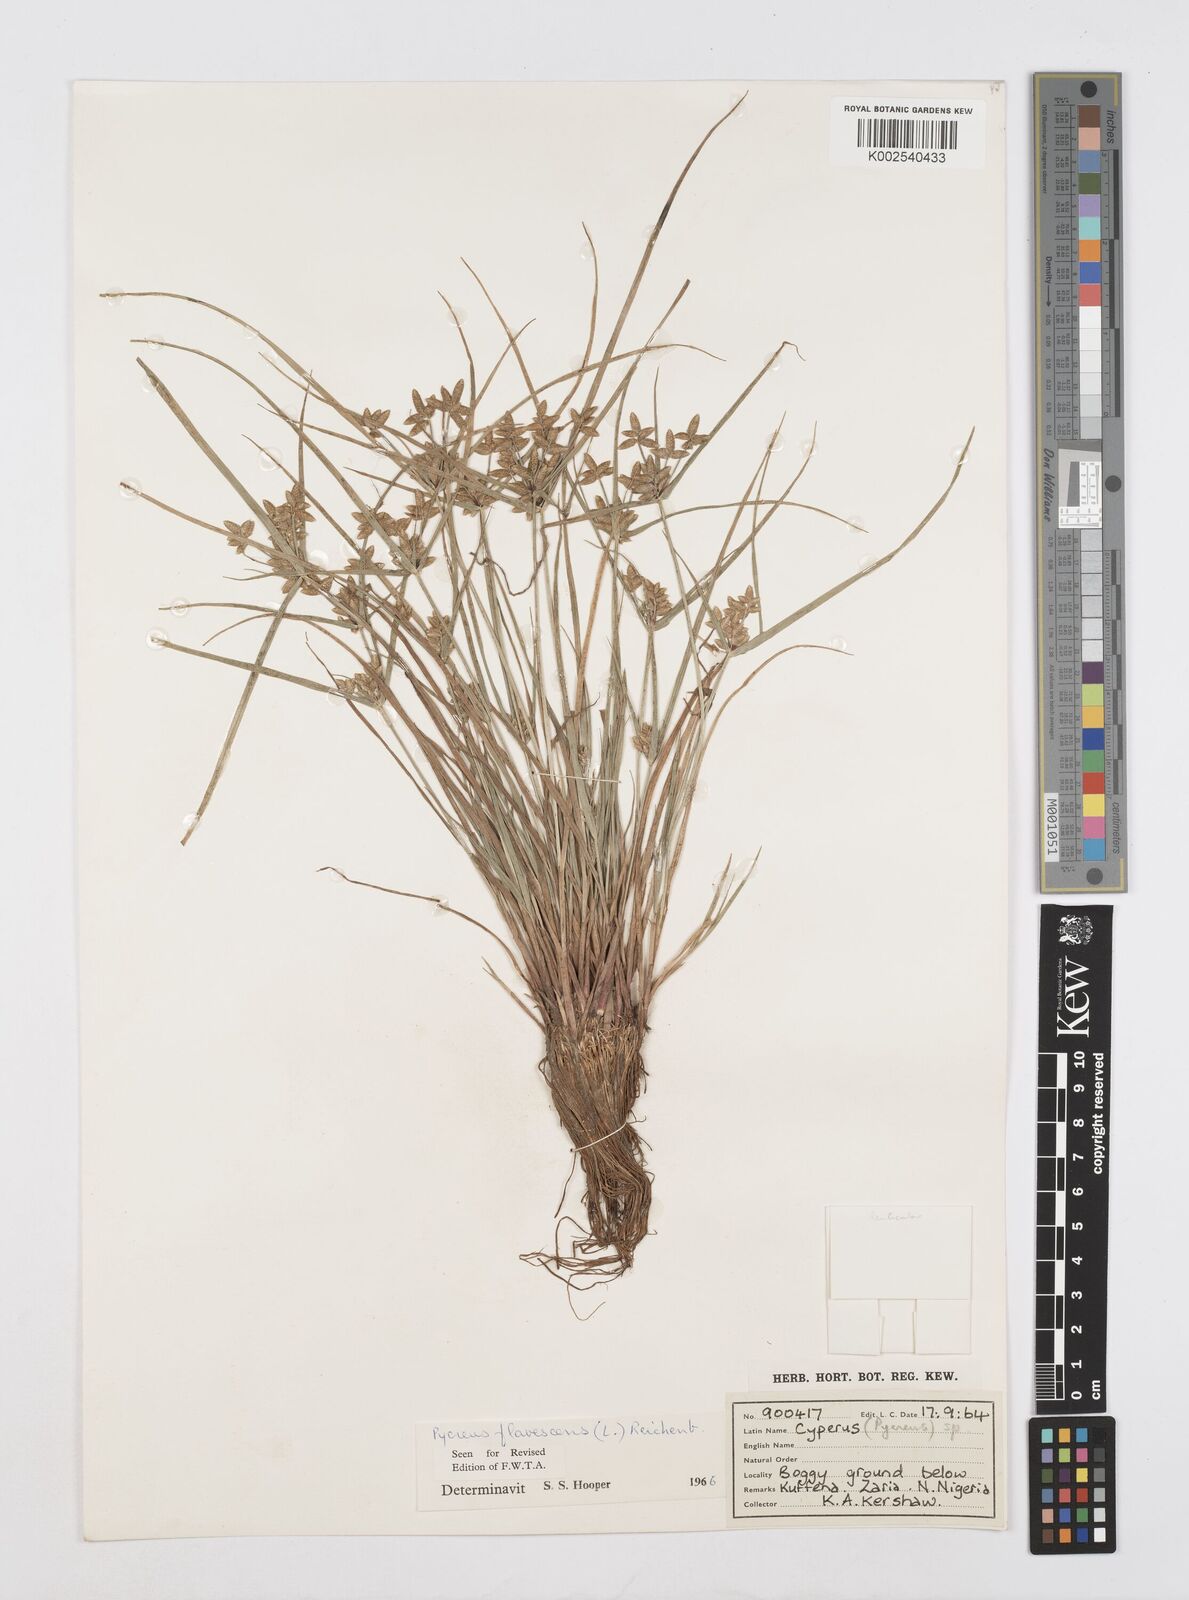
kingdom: Plantae
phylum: Tracheophyta
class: Liliopsida
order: Poales
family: Cyperaceae
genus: Cyperus
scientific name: Cyperus flavescens
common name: Yellow galingale
